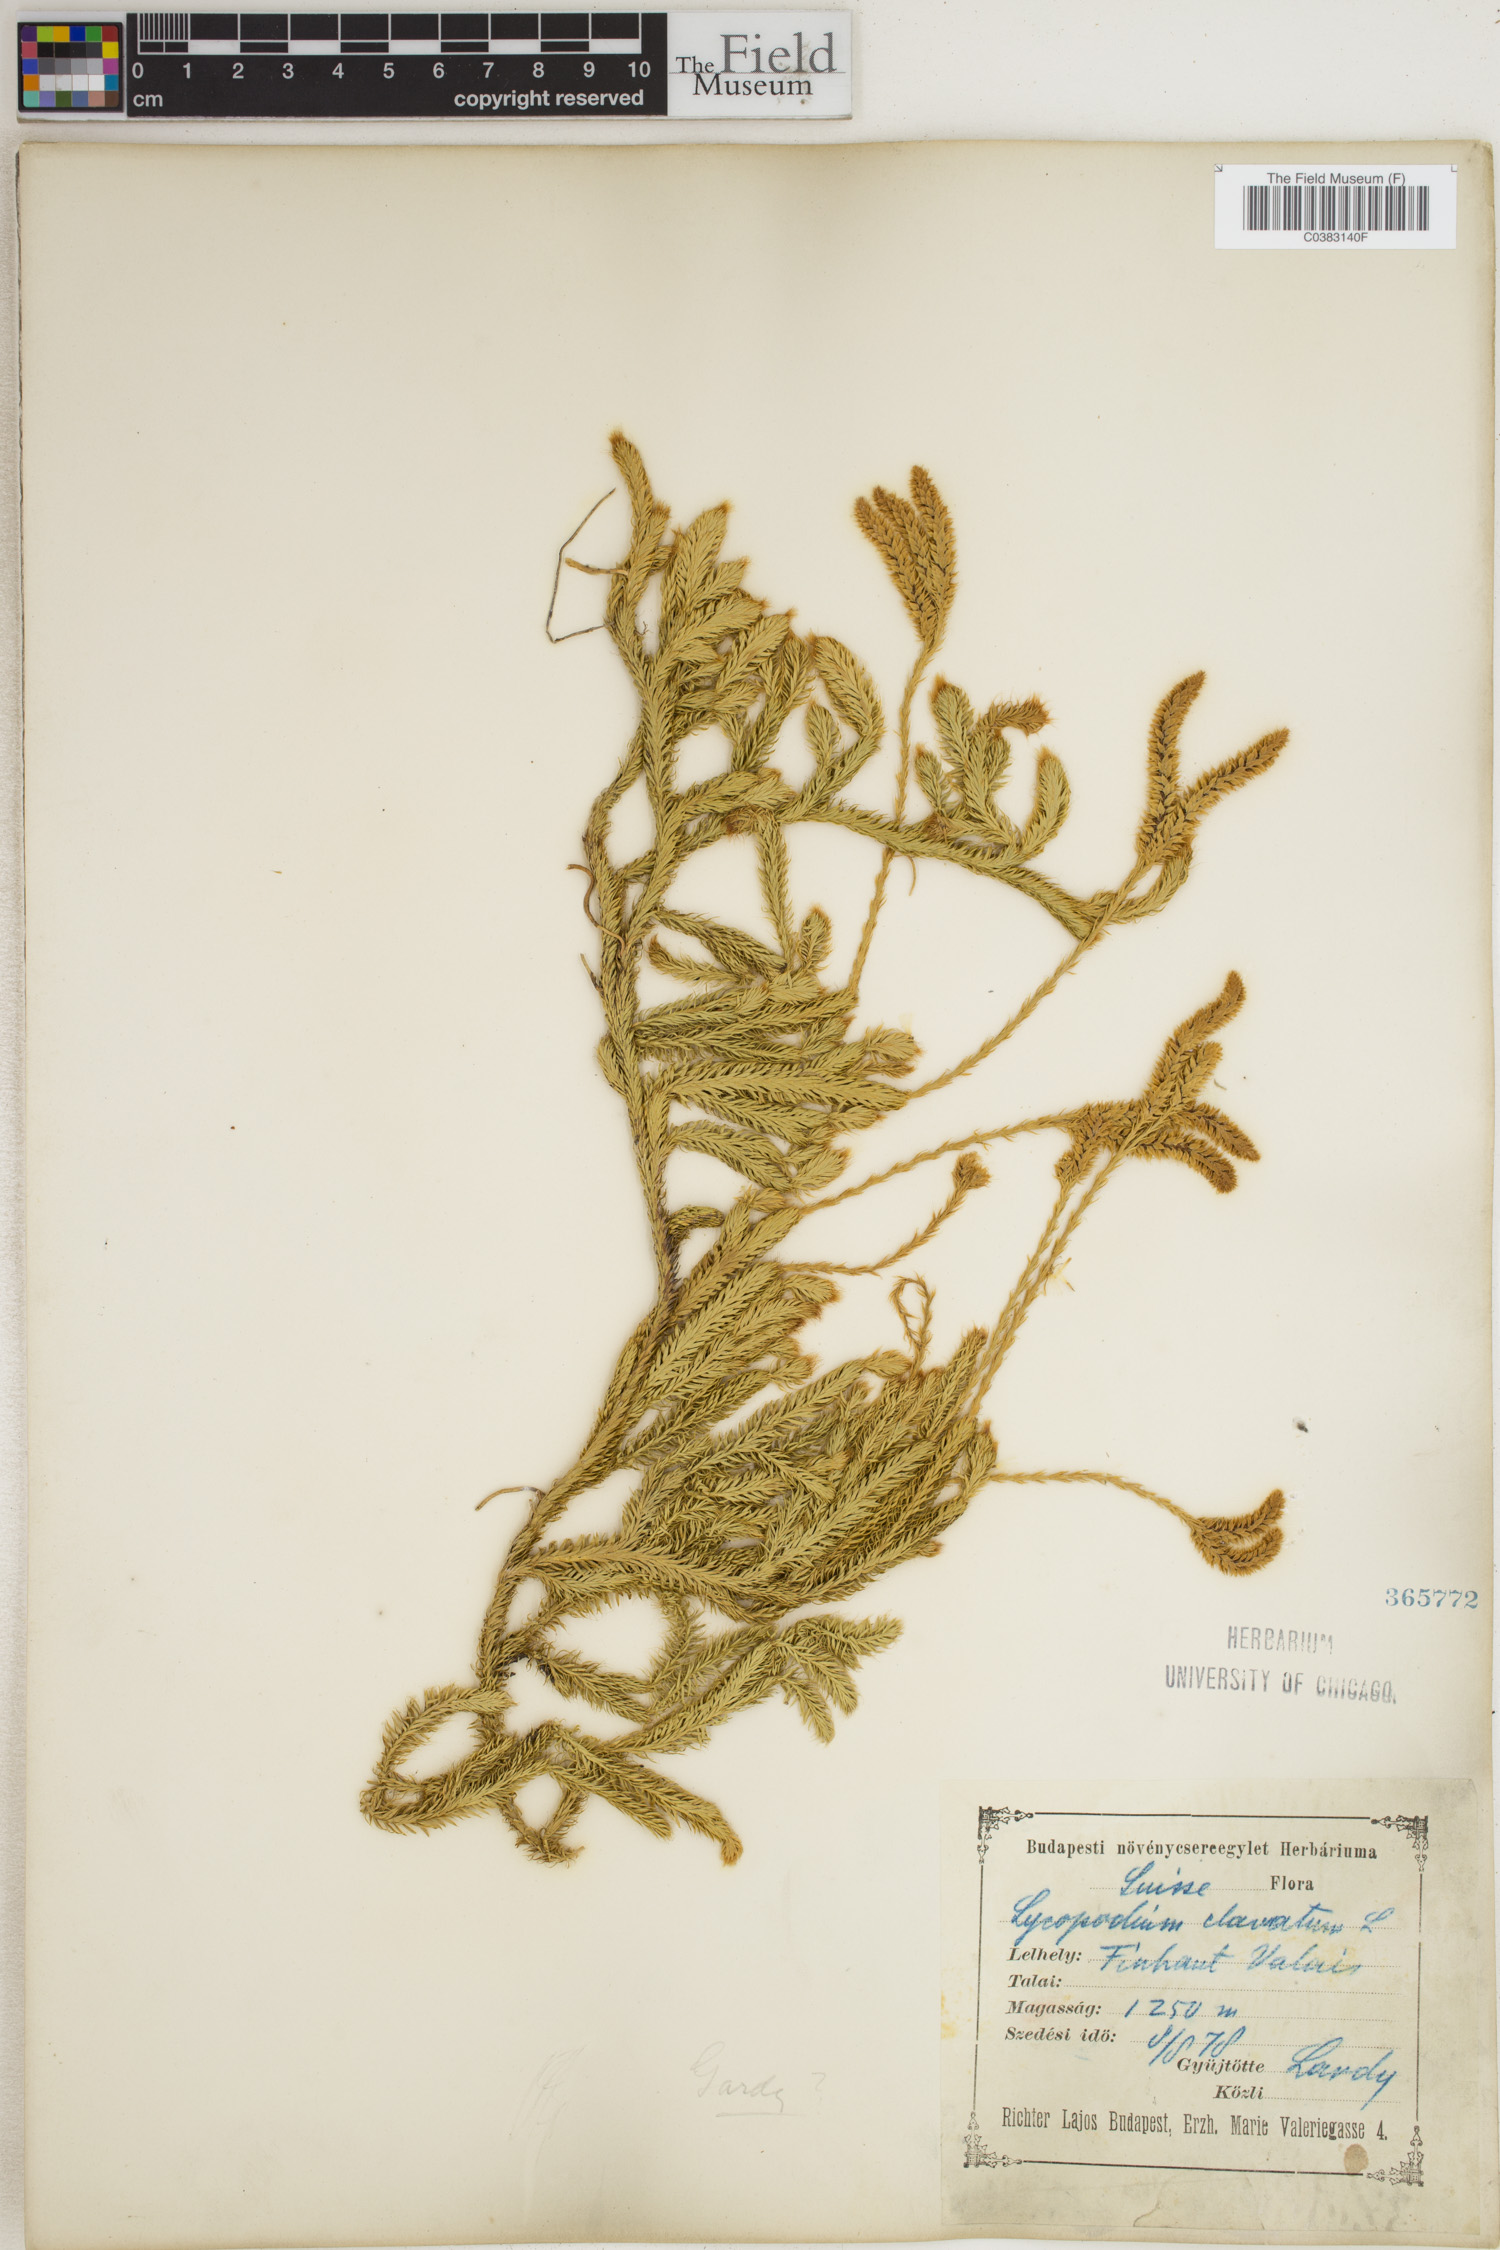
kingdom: Plantae
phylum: Tracheophyta
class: Lycopodiopsida
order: Lycopodiales
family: Lycopodiaceae
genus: Lycopodium
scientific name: Lycopodium clavatum
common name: Stag's-horn clubmoss
